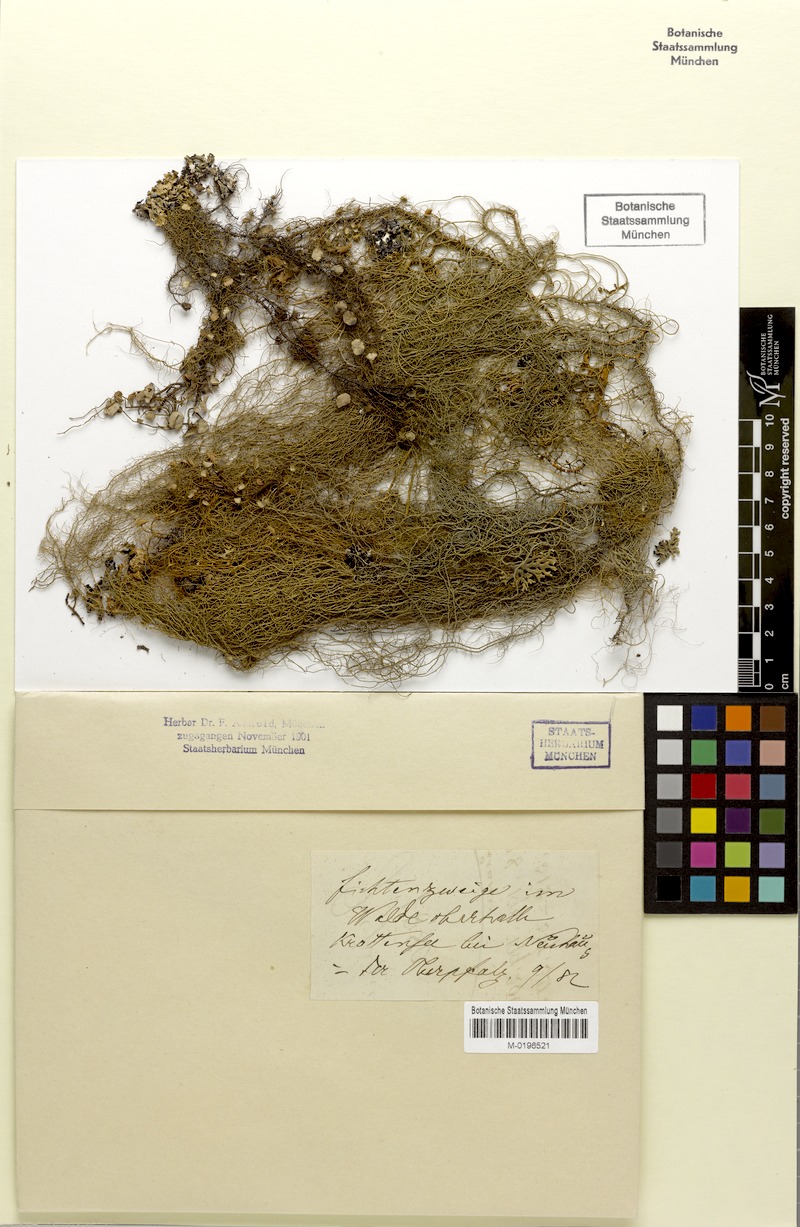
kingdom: Fungi
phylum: Ascomycota
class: Lecanoromycetes
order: Lecanorales
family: Parmeliaceae
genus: Usnea
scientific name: Usnea dasopoga
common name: Fishbone beard lichen
